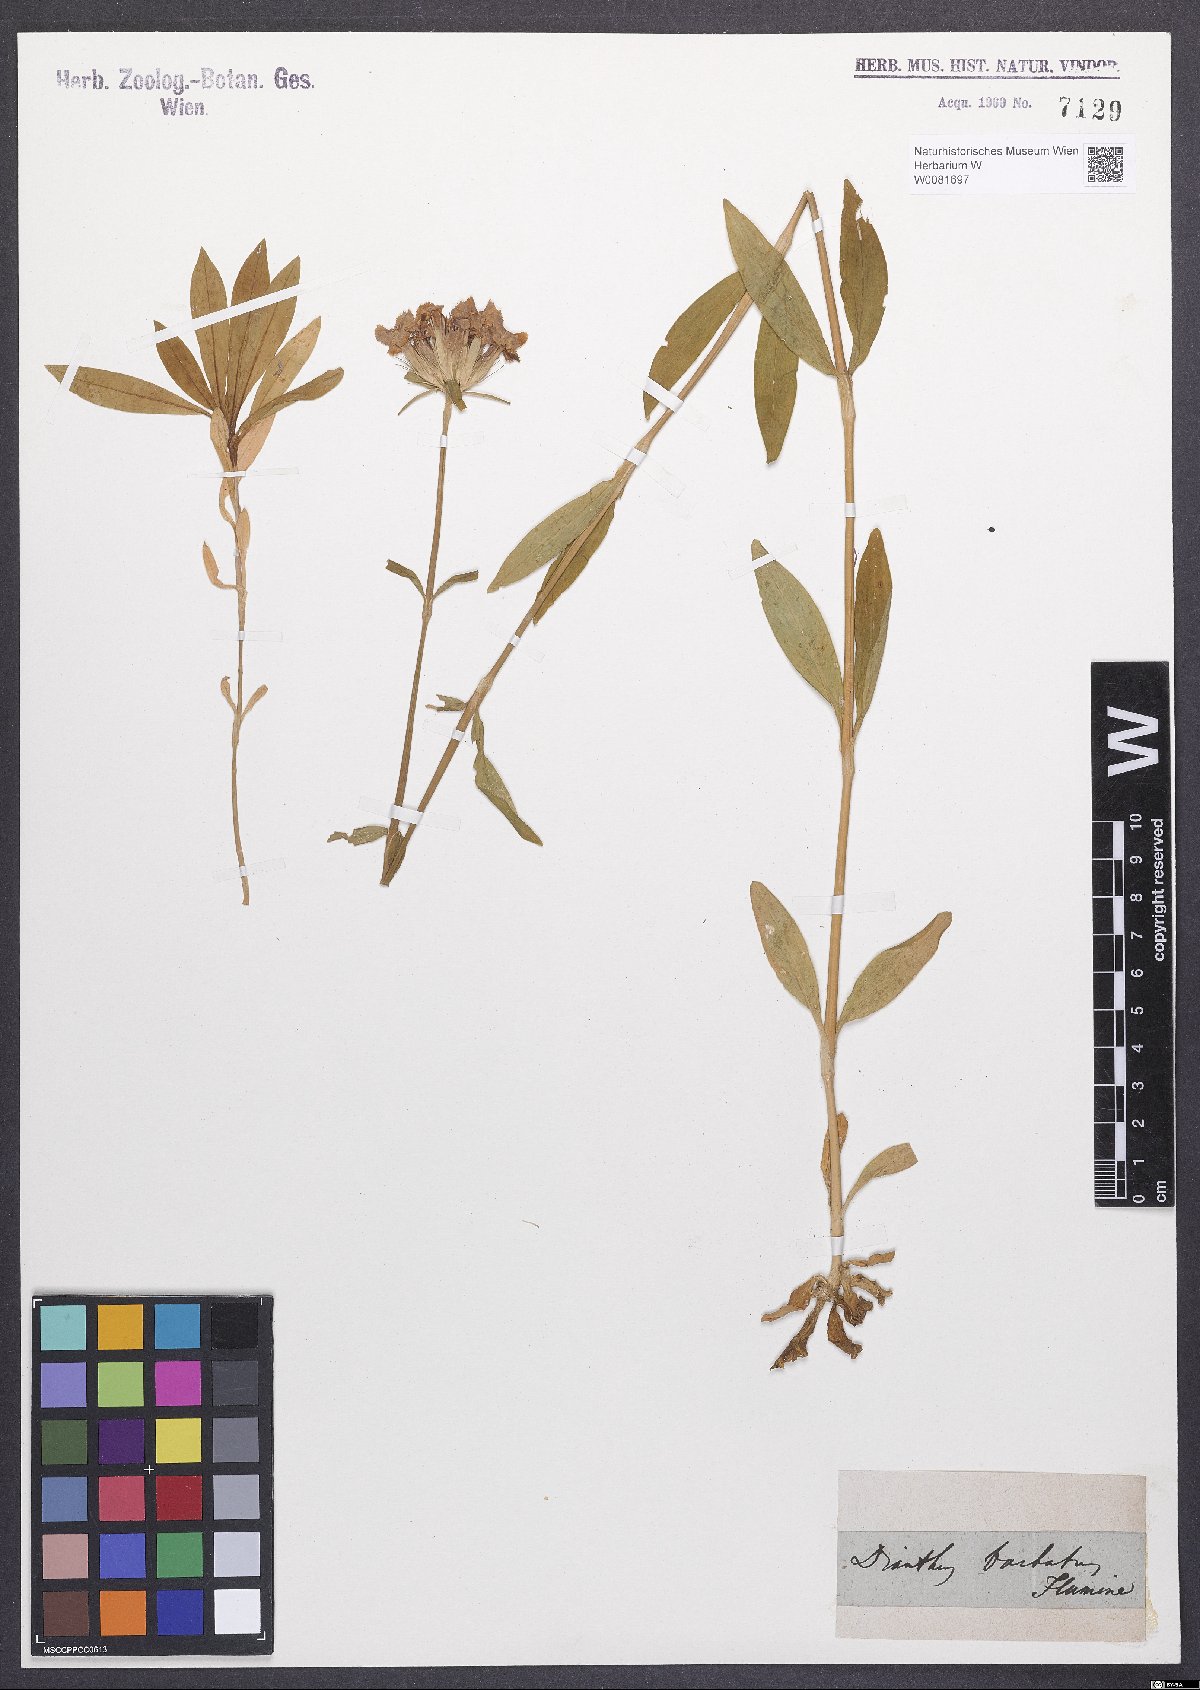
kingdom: Plantae
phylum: Tracheophyta
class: Magnoliopsida
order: Caryophyllales
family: Caryophyllaceae
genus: Dianthus
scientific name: Dianthus barbatus
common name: Sweet-william
